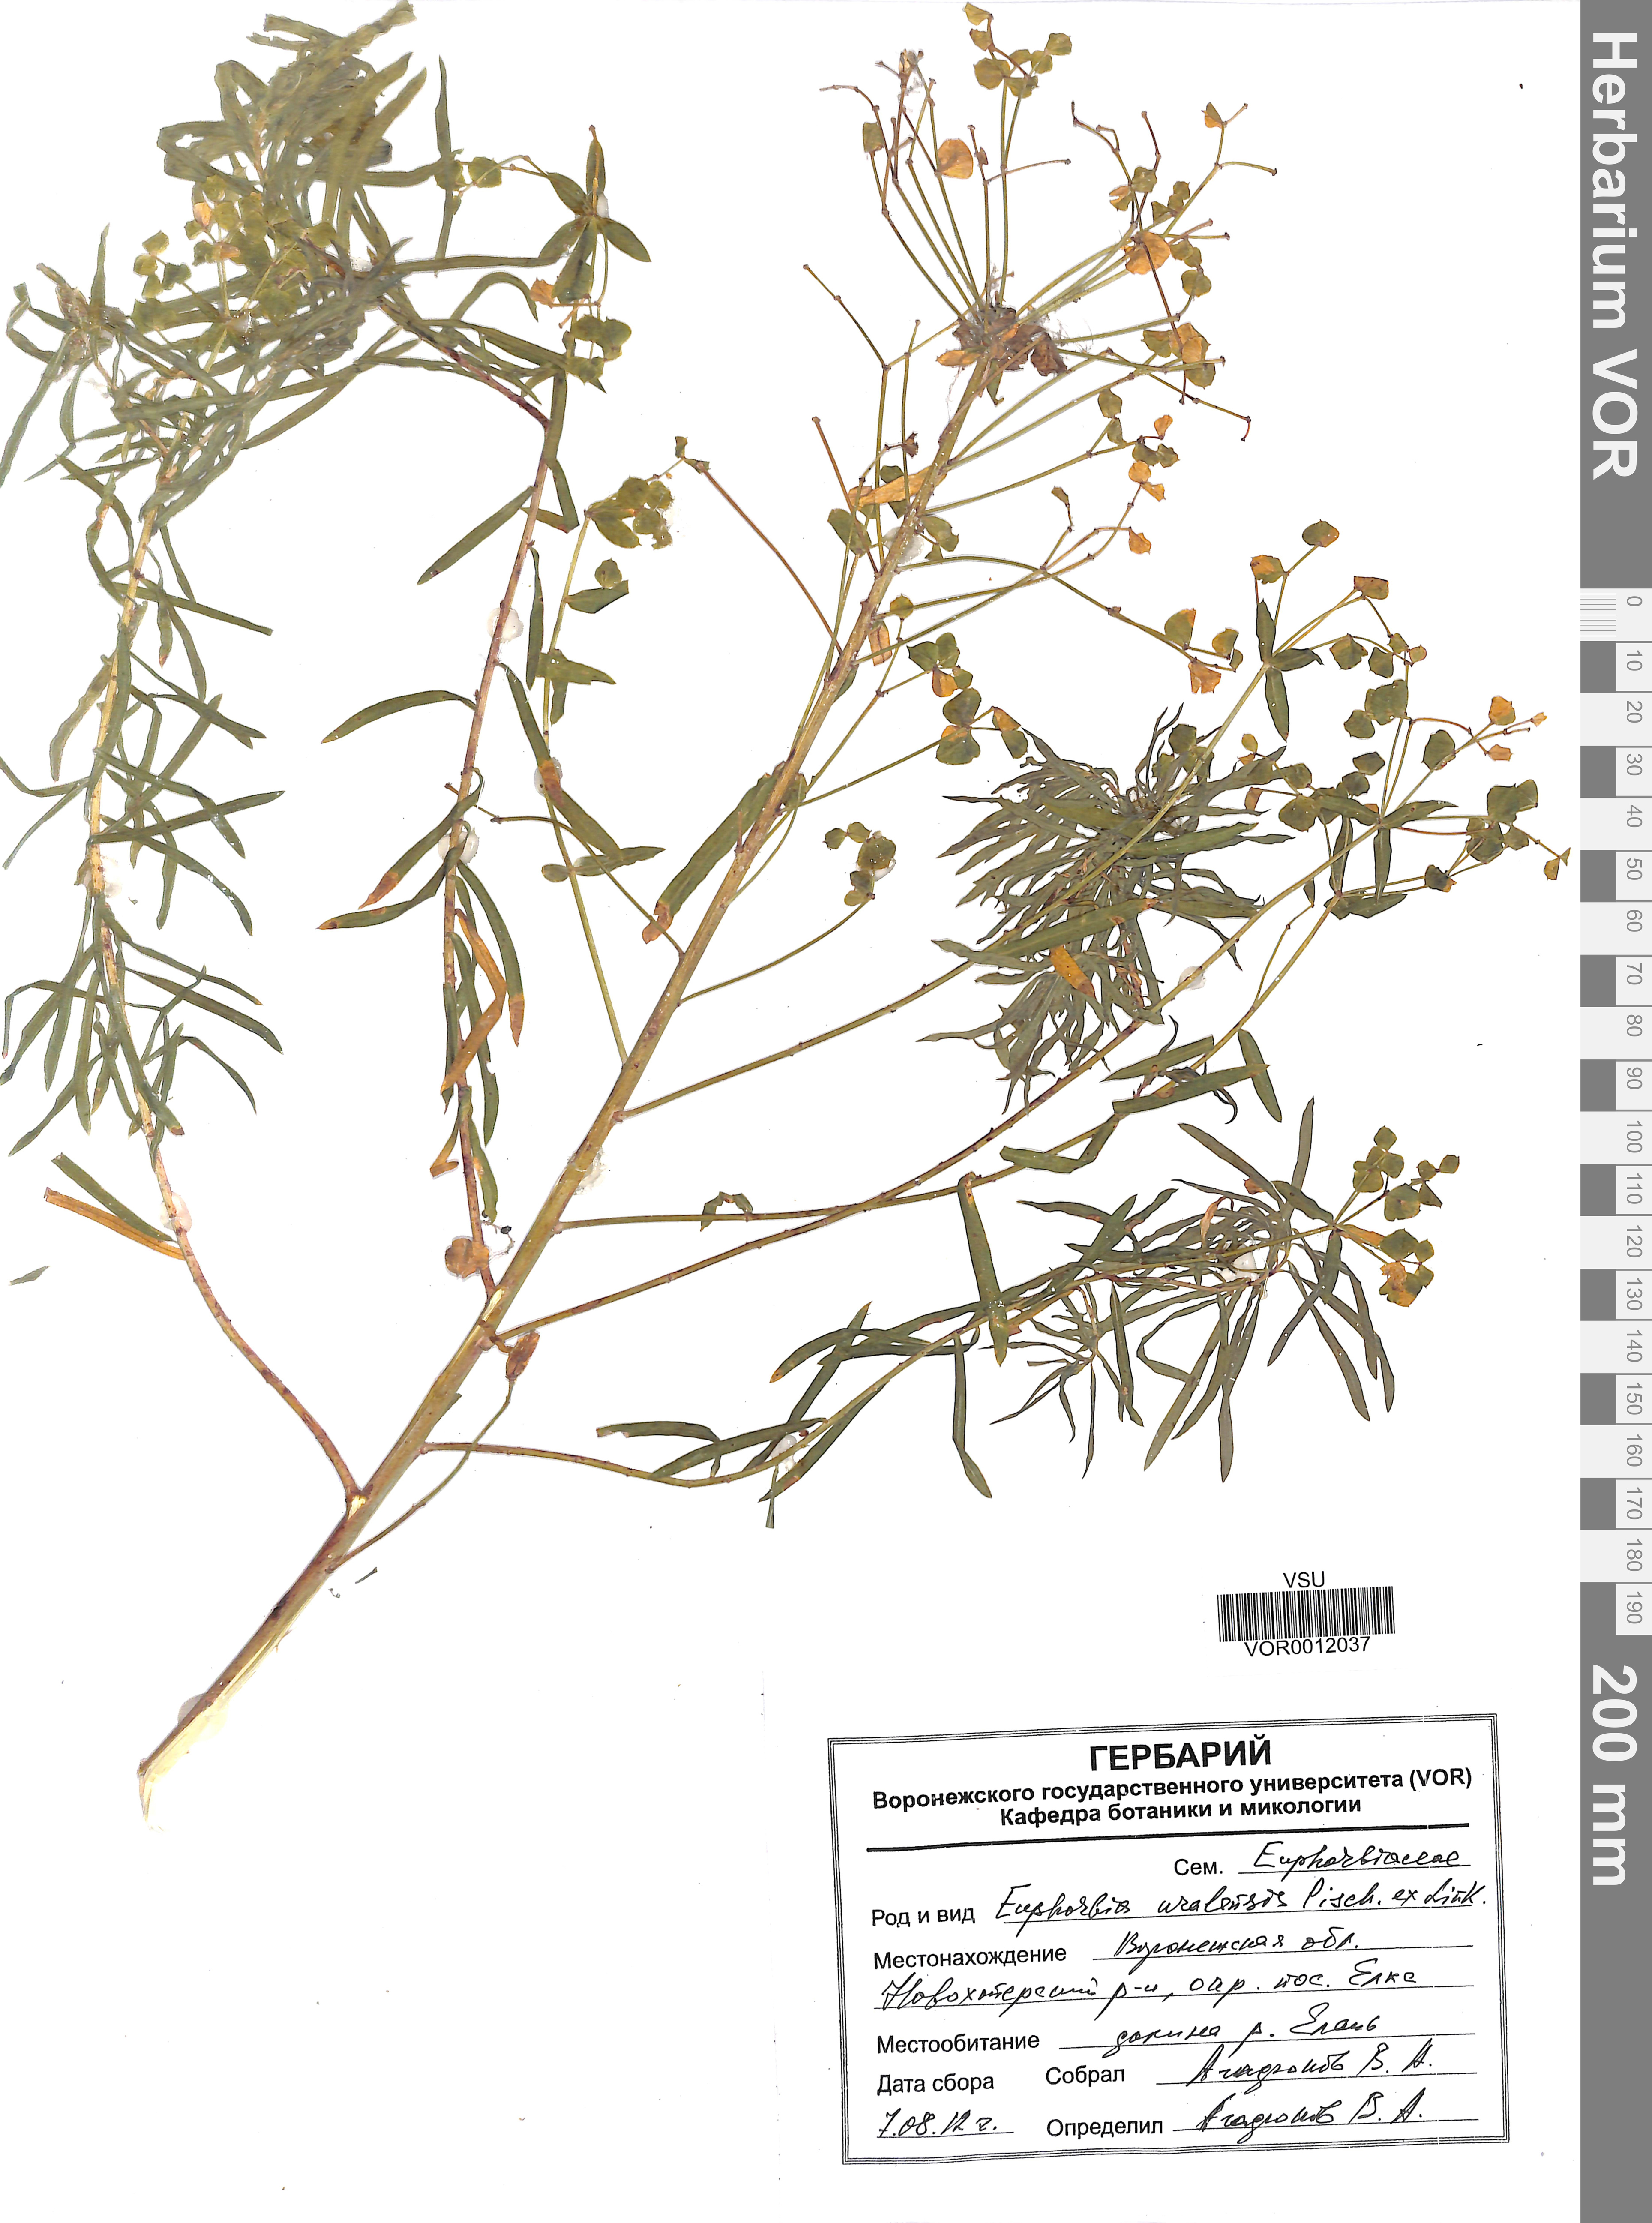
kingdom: Plantae
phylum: Tracheophyta
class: Magnoliopsida
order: Malpighiales
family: Euphorbiaceae
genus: Euphorbia
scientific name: Euphorbia uralensis
